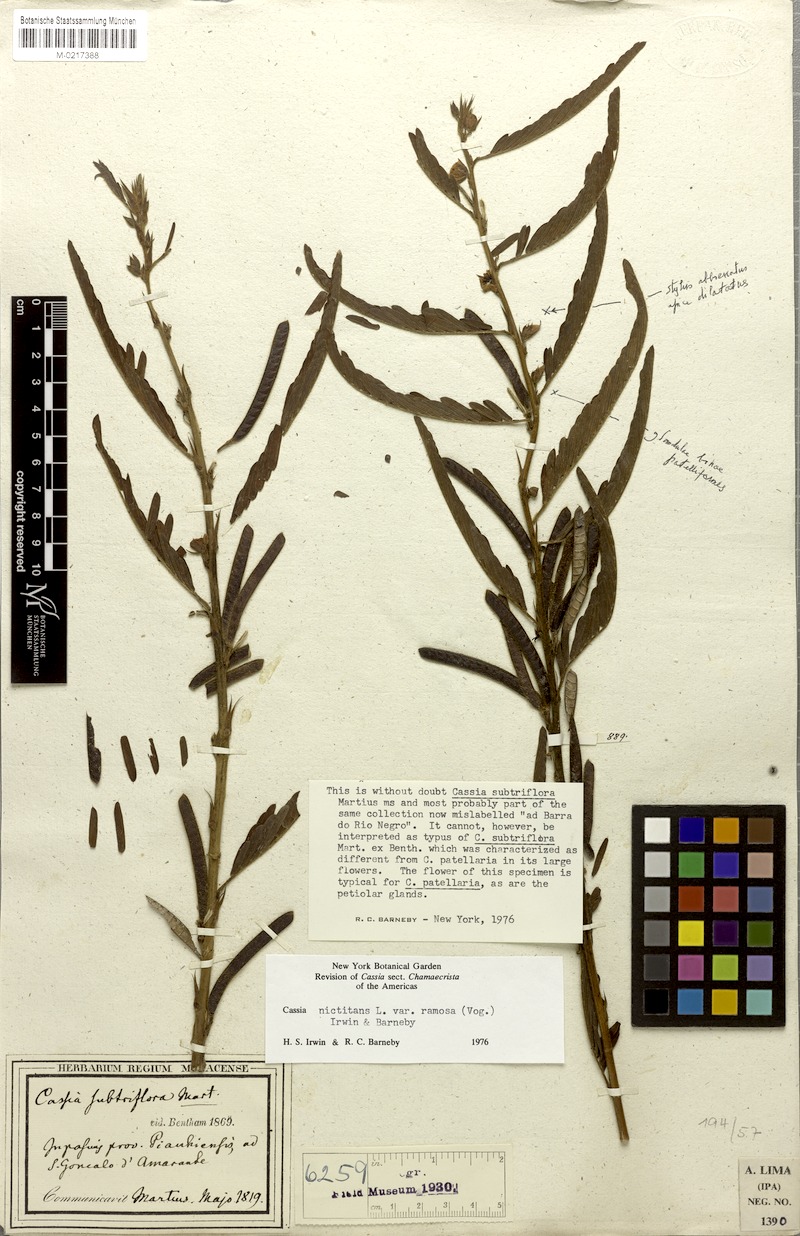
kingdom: Plantae
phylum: Tracheophyta
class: Magnoliopsida
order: Fabales
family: Fabaceae
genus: Chamaecrista
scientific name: Chamaecrista nictitans
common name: Sensitive cassia
